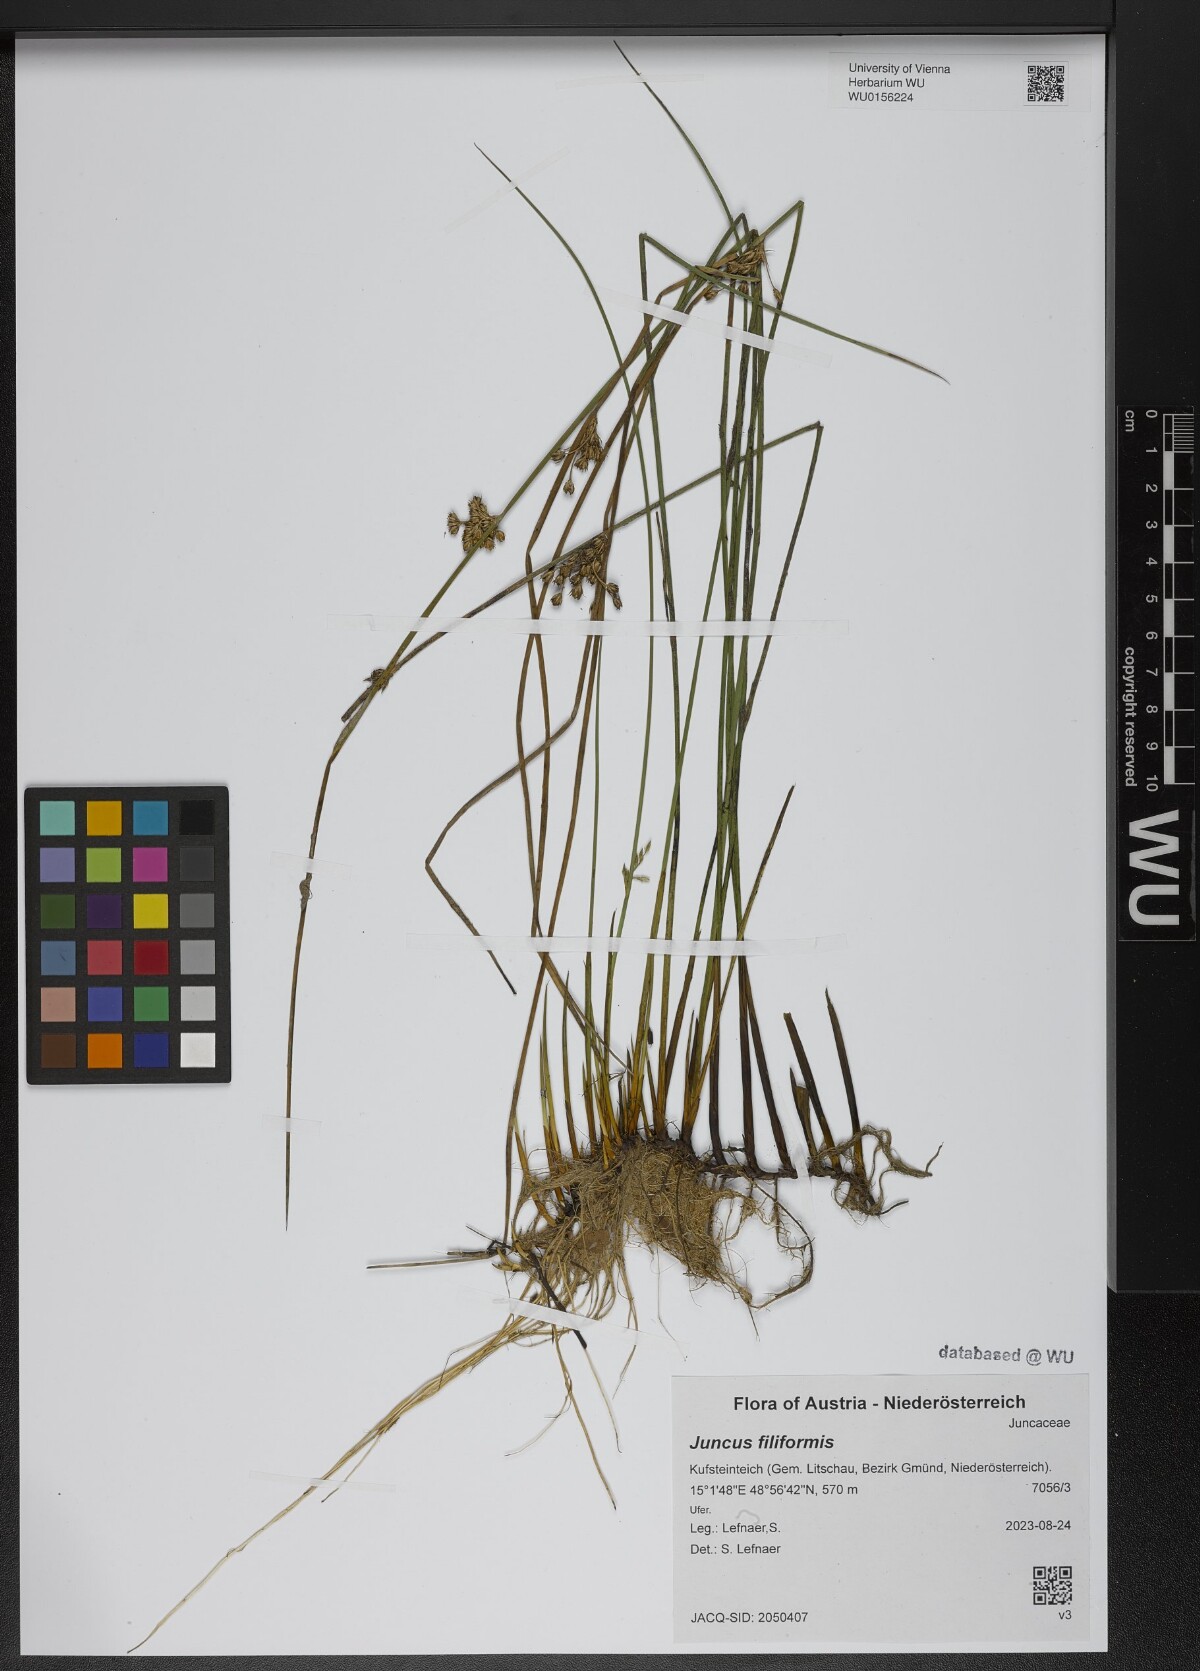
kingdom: Plantae
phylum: Tracheophyta
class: Liliopsida
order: Poales
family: Juncaceae
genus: Juncus
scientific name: Juncus filiformis
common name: Thread rush
